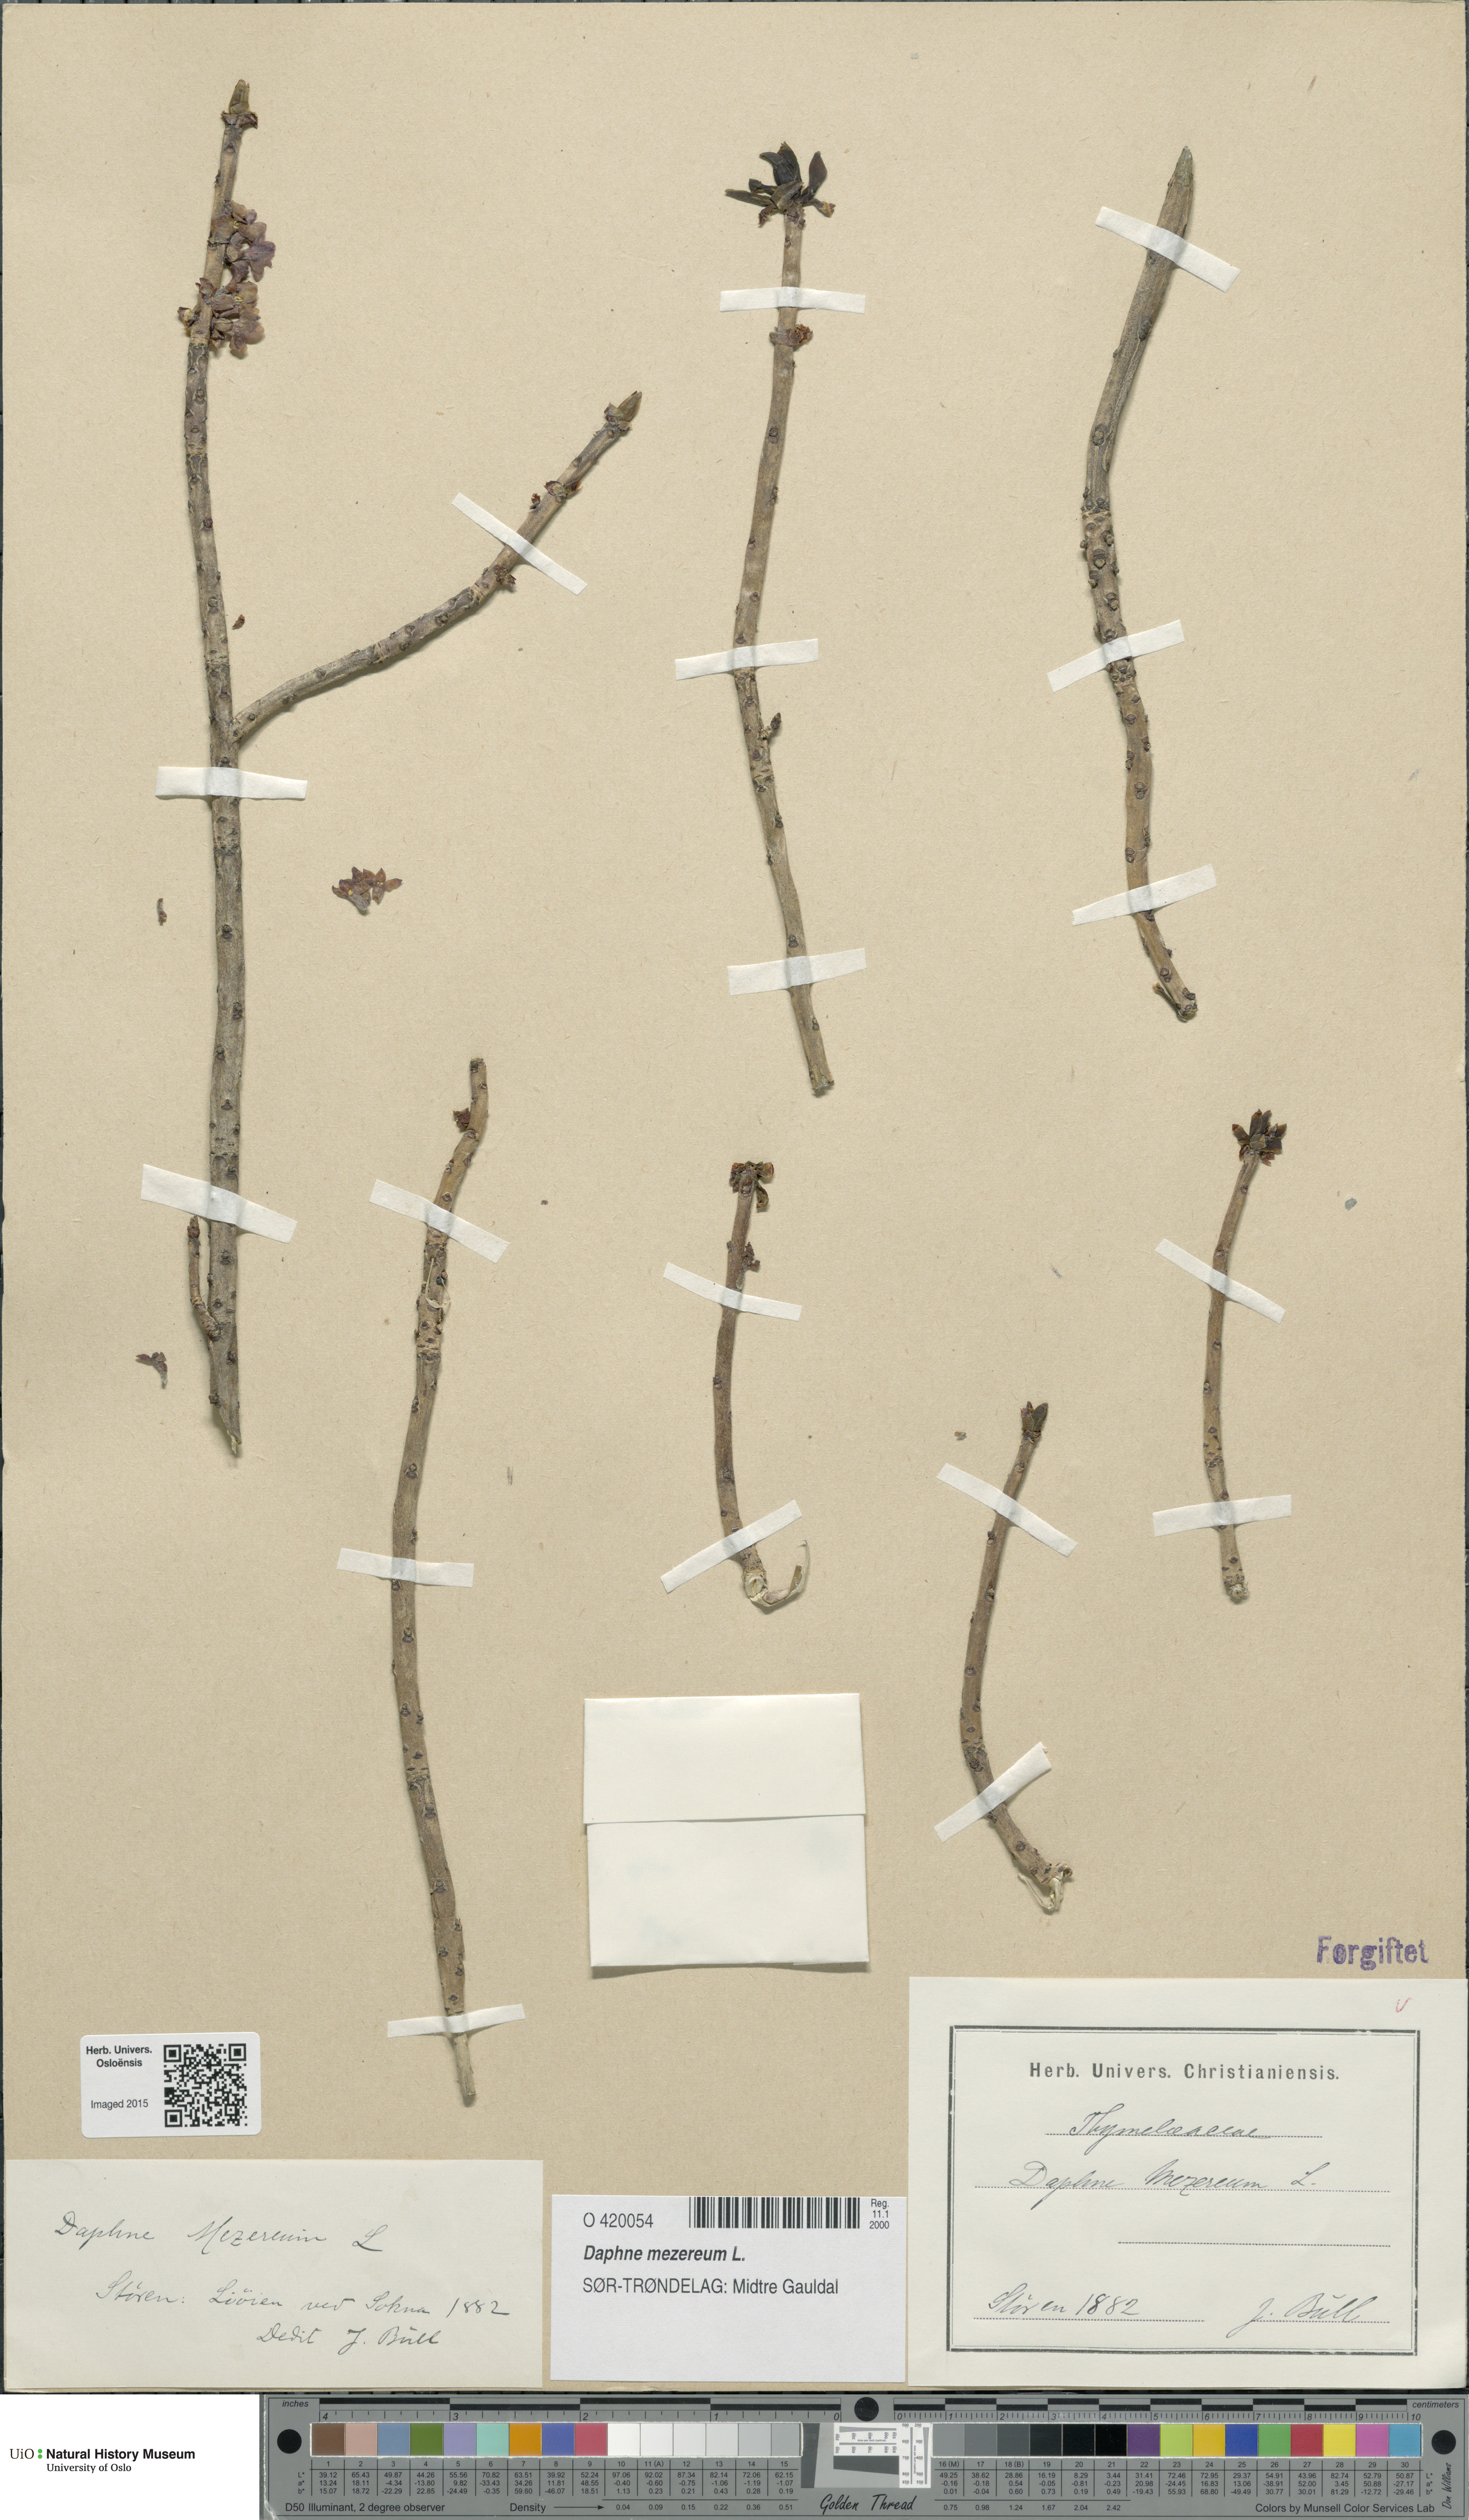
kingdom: Plantae
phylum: Tracheophyta
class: Magnoliopsida
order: Malvales
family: Thymelaeaceae
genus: Daphne
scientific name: Daphne mezereum
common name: Mezereon
